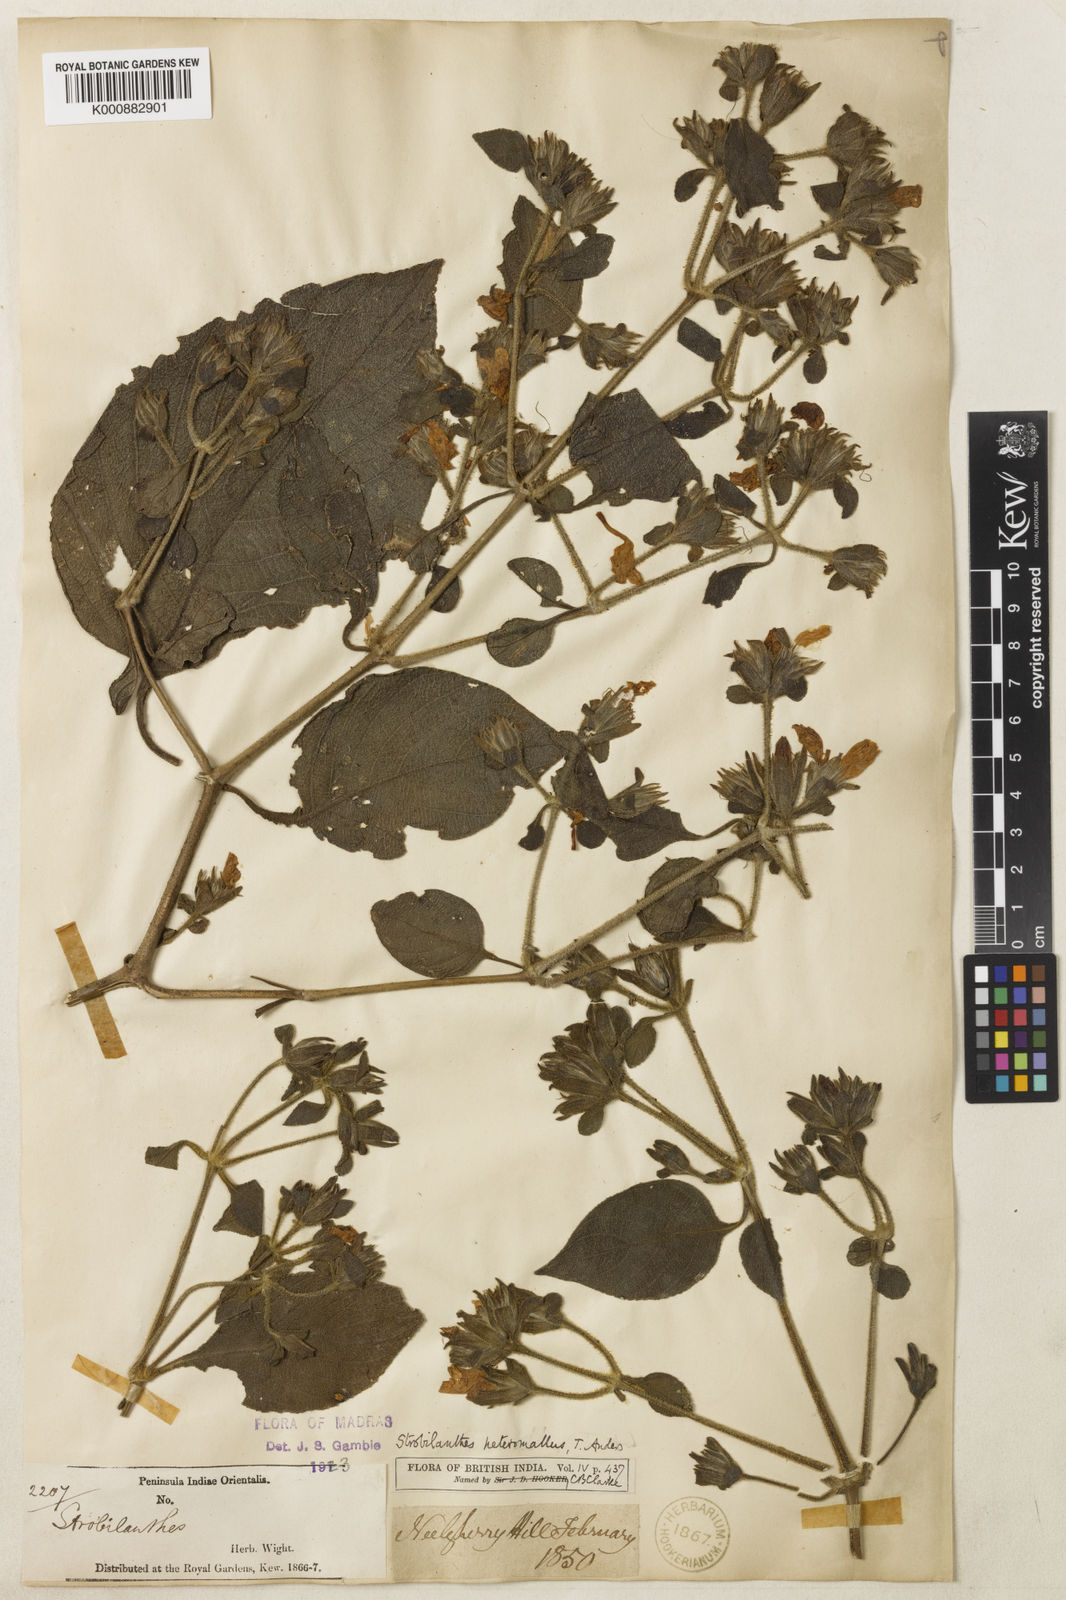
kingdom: Plantae
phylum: Tracheophyta
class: Magnoliopsida
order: Lamiales
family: Acanthaceae
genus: Strobilanthes
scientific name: Strobilanthes
